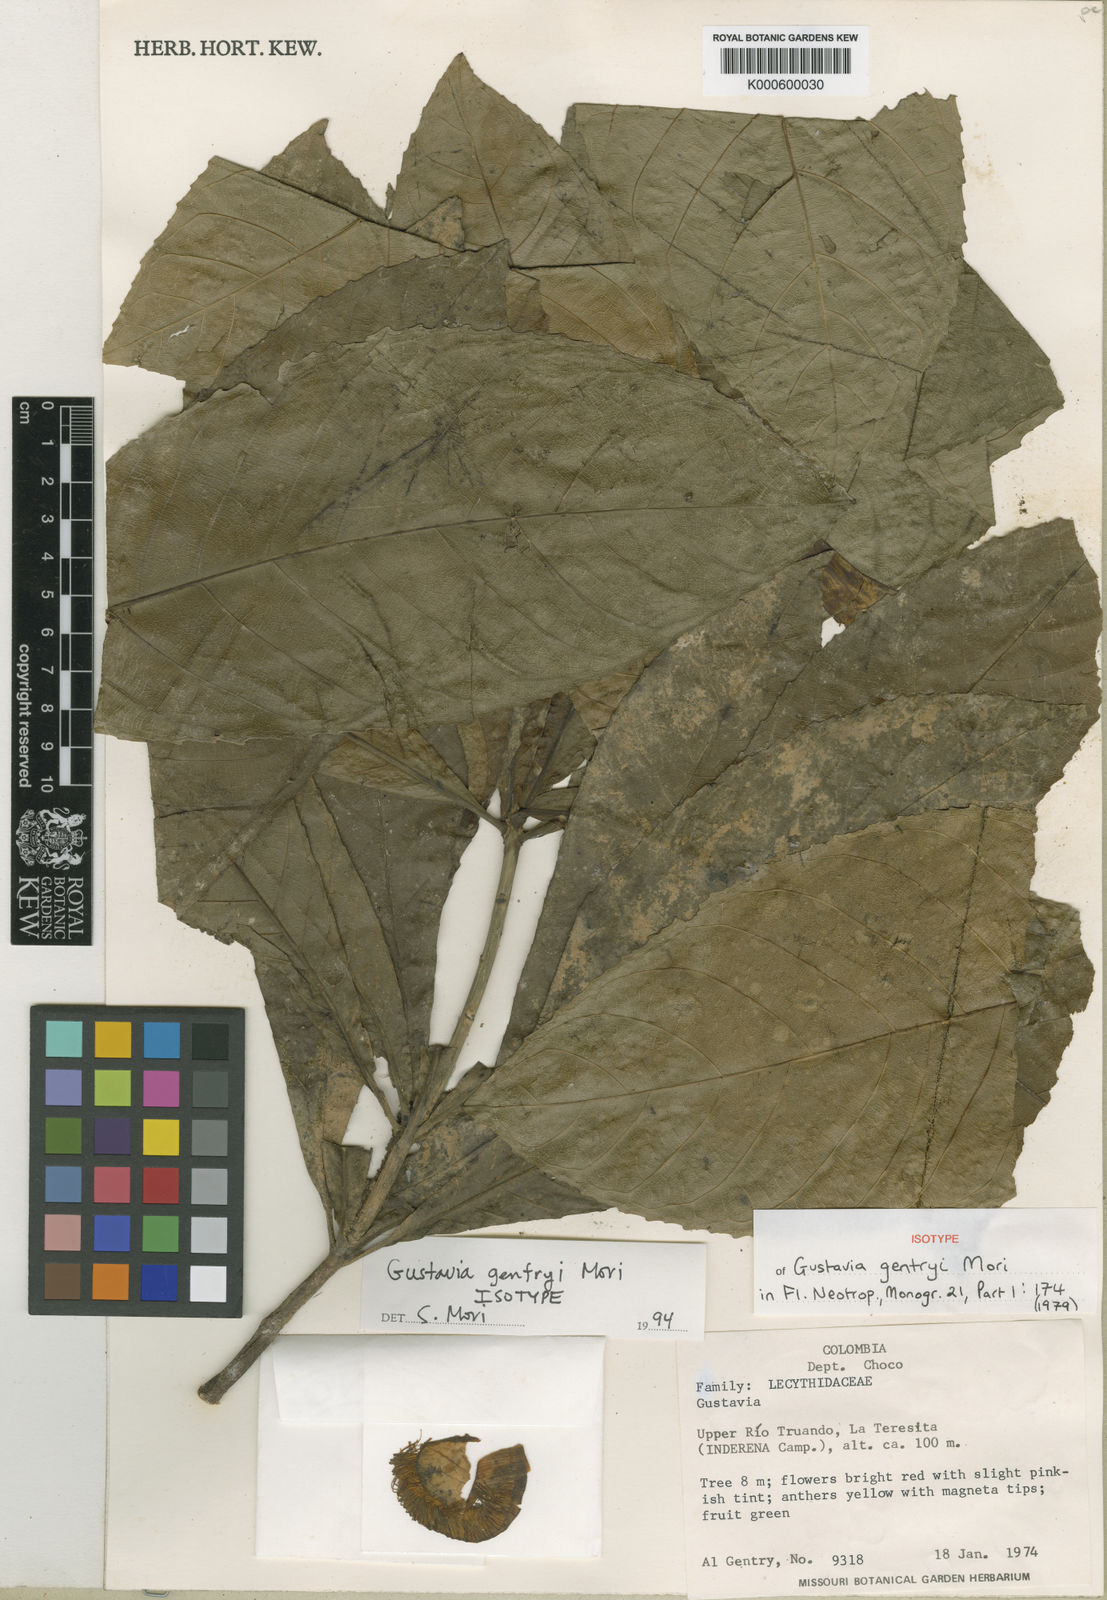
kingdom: Plantae
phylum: Tracheophyta
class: Magnoliopsida
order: Ericales
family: Lecythidaceae
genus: Gustavia
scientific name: Gustavia gentryi
